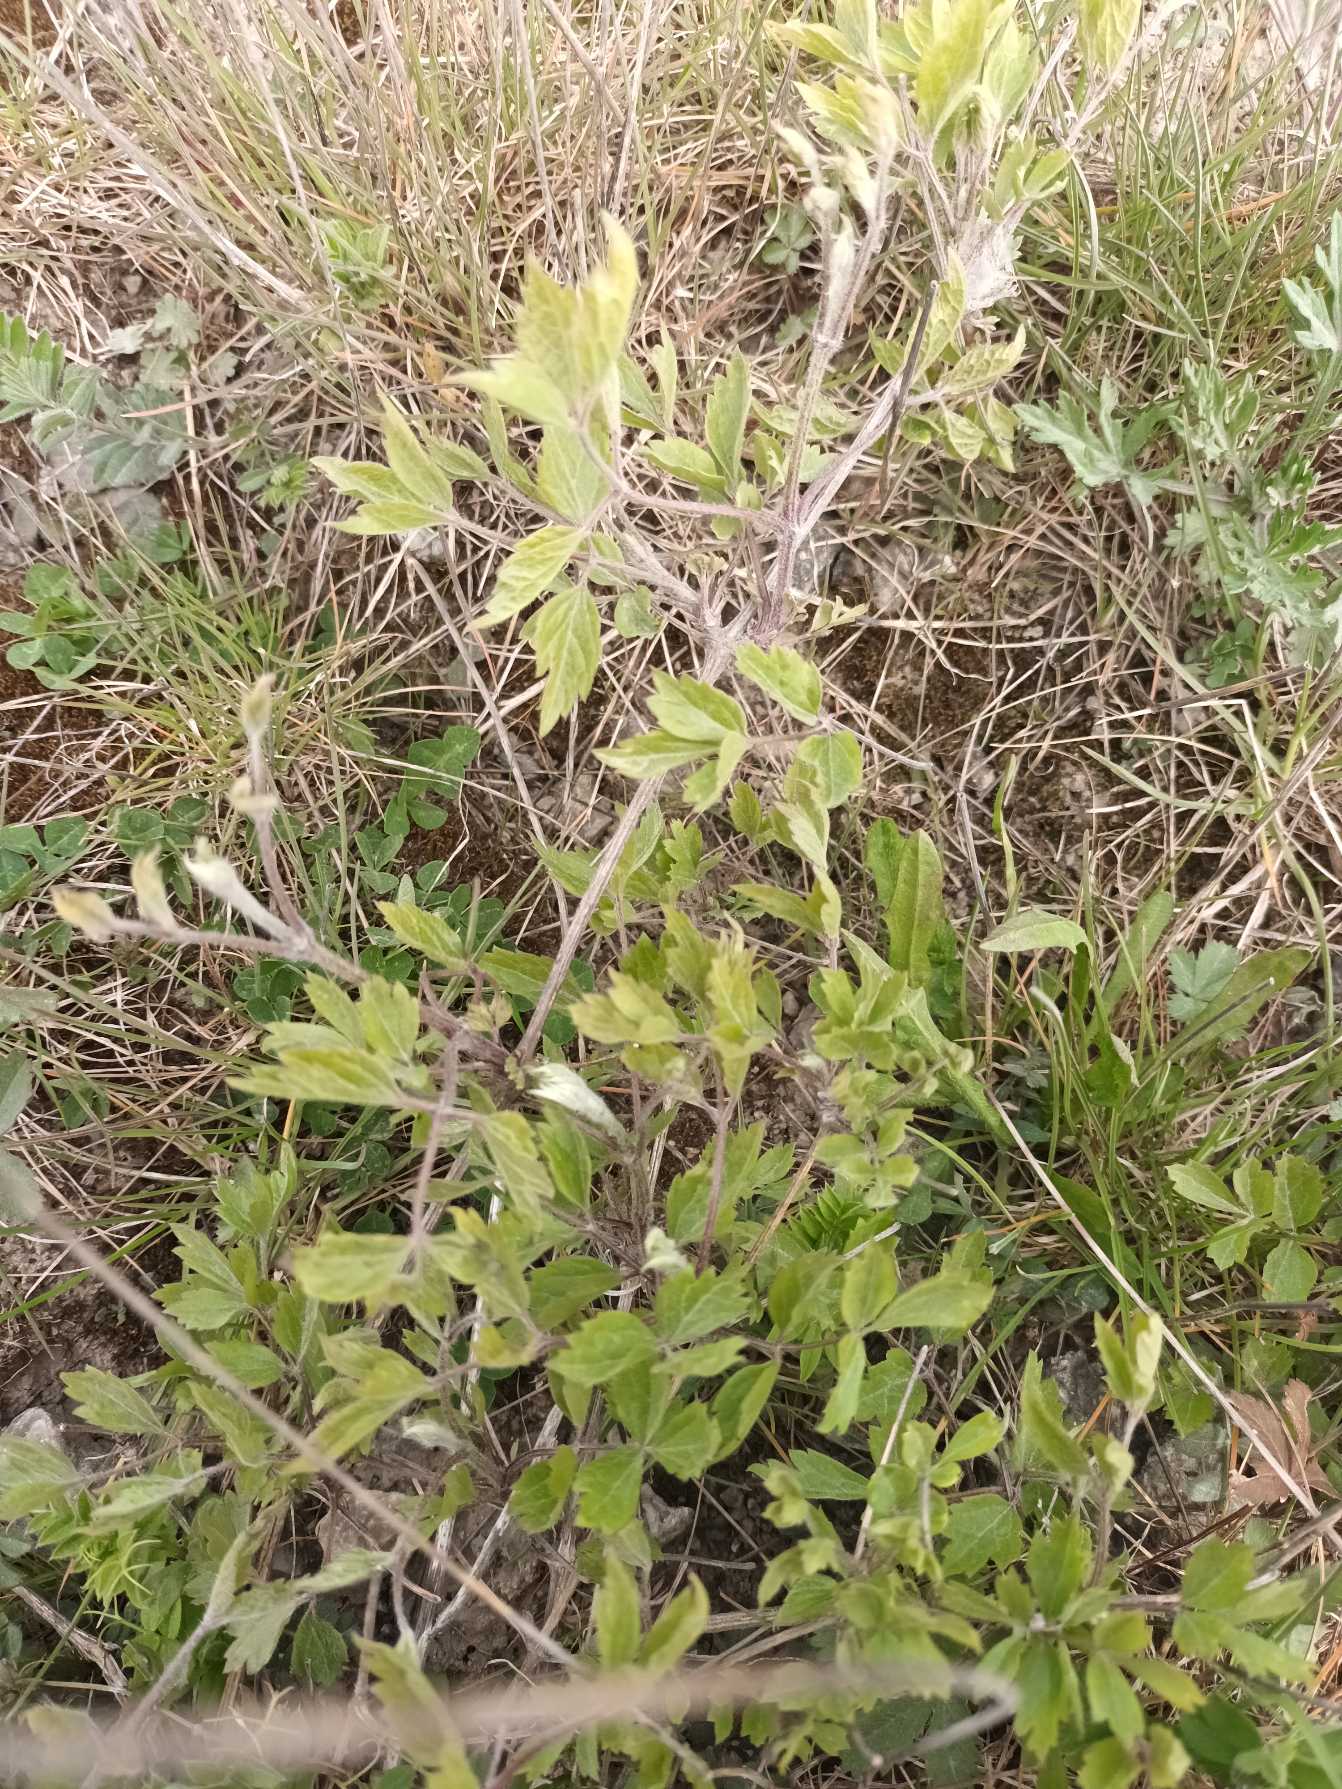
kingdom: Plantae
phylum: Tracheophyta
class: Magnoliopsida
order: Ranunculales
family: Ranunculaceae
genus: Clematis
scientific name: Clematis vitalba
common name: Skovranke
